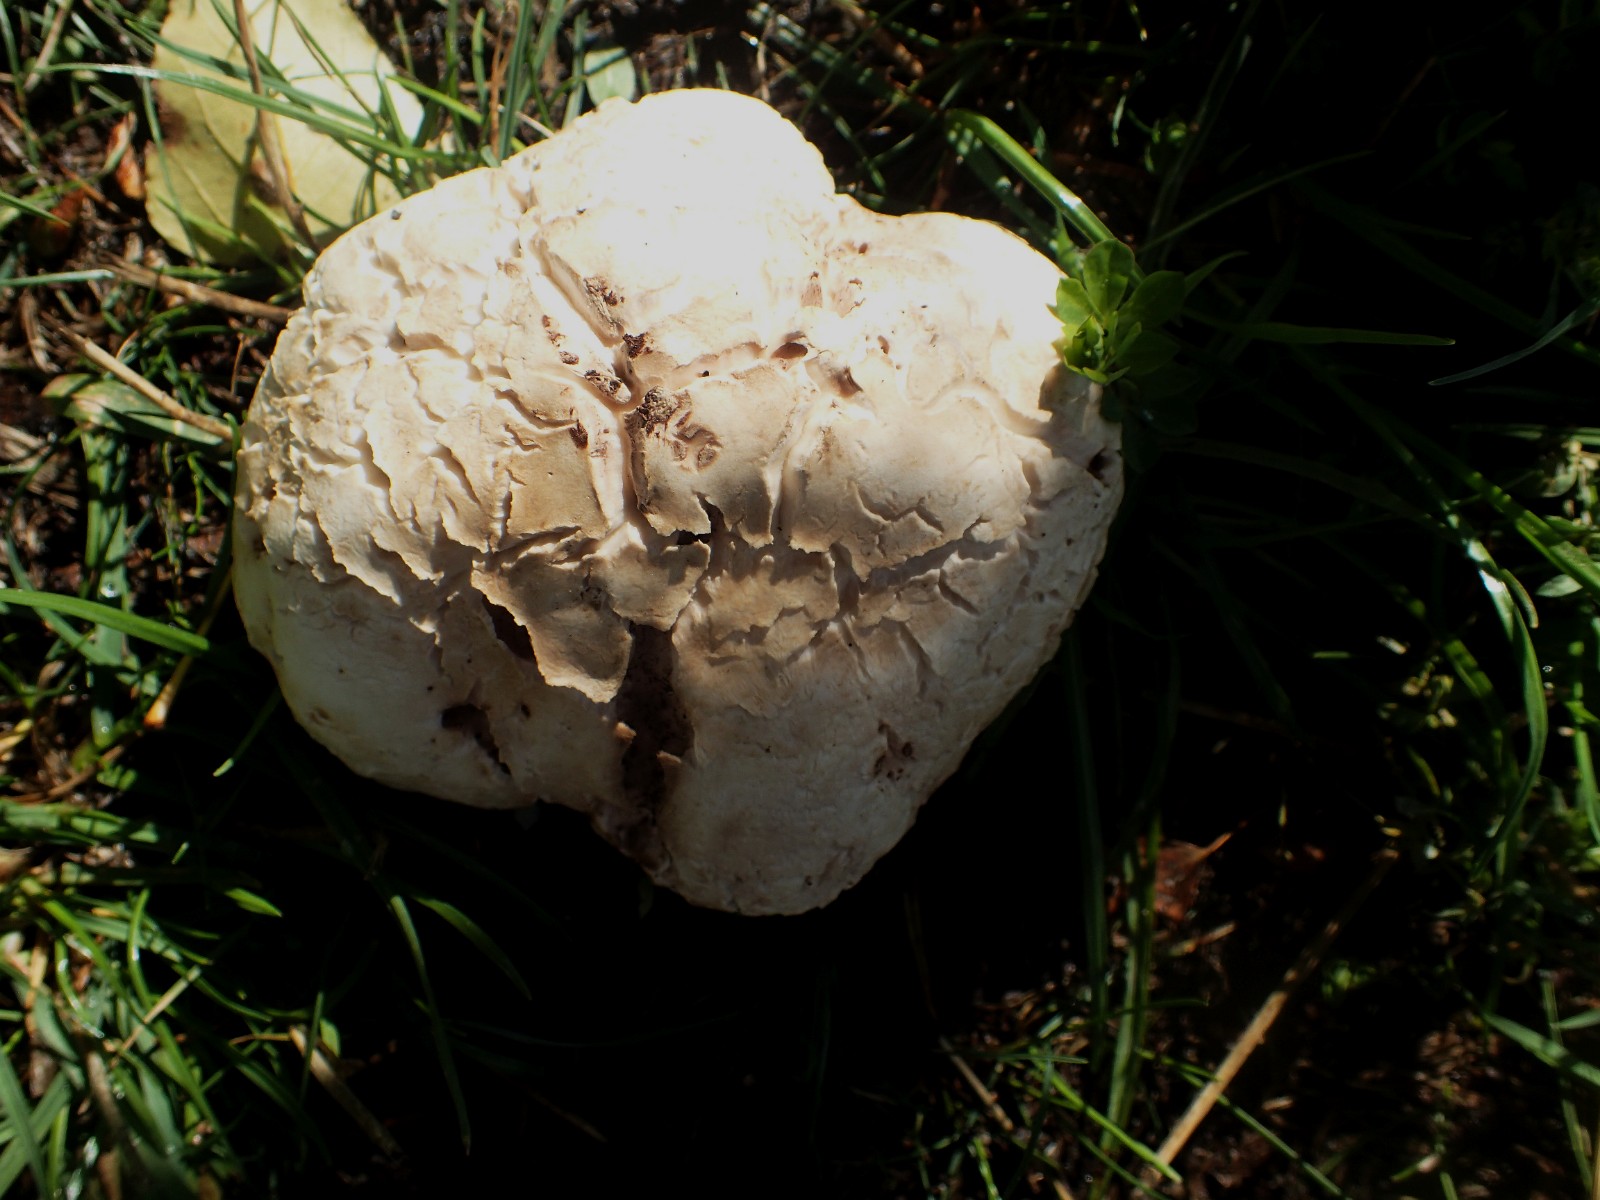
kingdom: Fungi
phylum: Basidiomycota
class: Agaricomycetes
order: Agaricales
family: Agaricaceae
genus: Agaricus
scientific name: Agaricus bernardii
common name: strandengs-champignon
